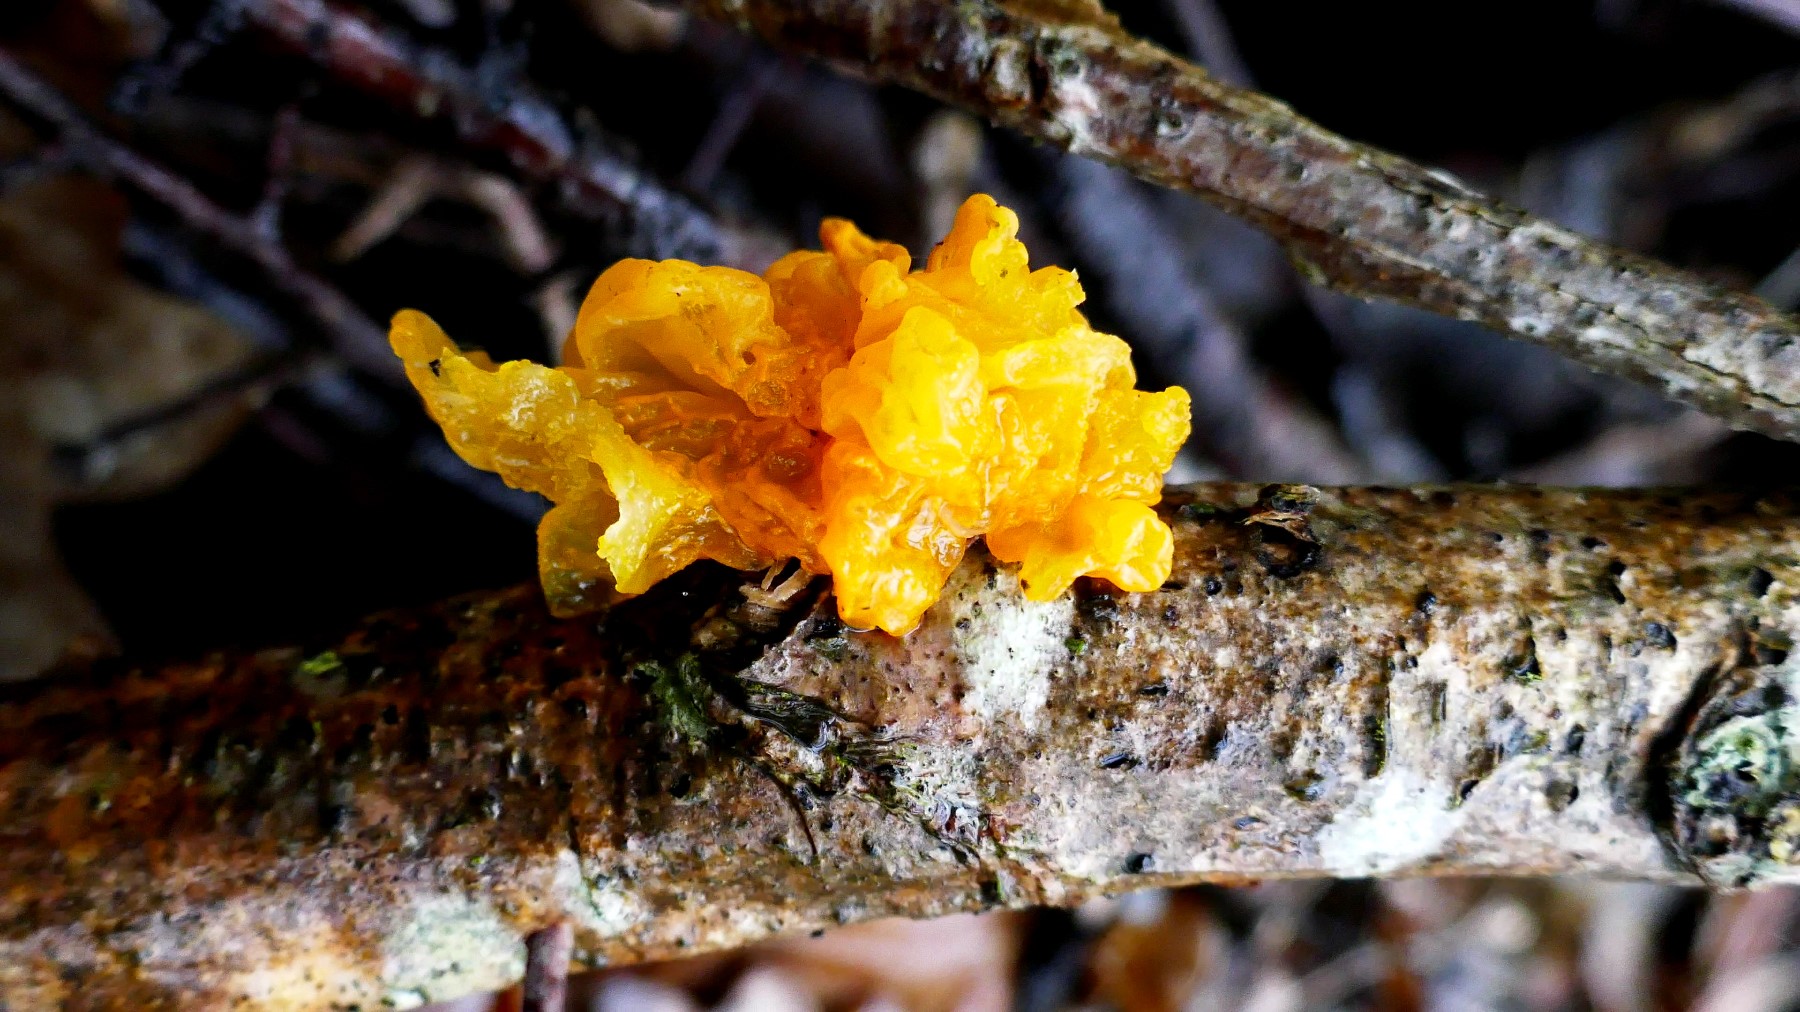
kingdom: Fungi
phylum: Basidiomycota
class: Tremellomycetes
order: Tremellales
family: Tremellaceae
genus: Tremella
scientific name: Tremella mesenterica
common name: gul bævresvamp
